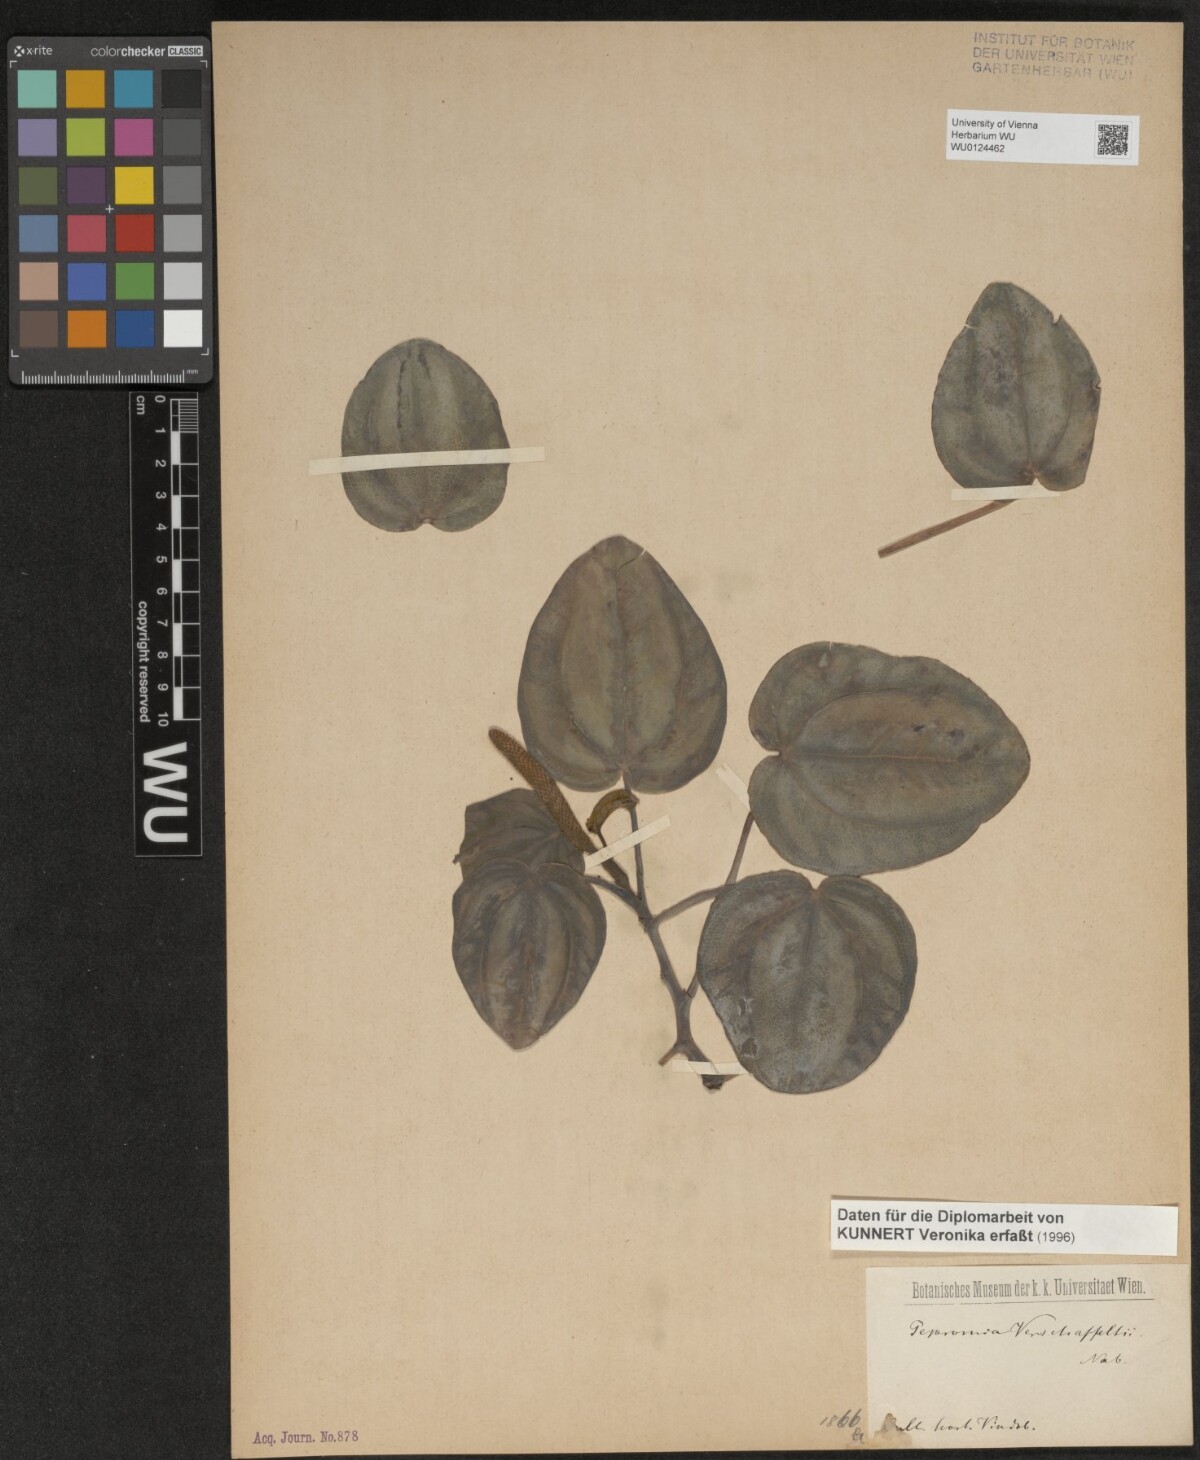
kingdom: Plantae
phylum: Tracheophyta
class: Magnoliopsida
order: Piperales
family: Piperaceae
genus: Peperomia
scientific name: Peperomia verschaffeltii
